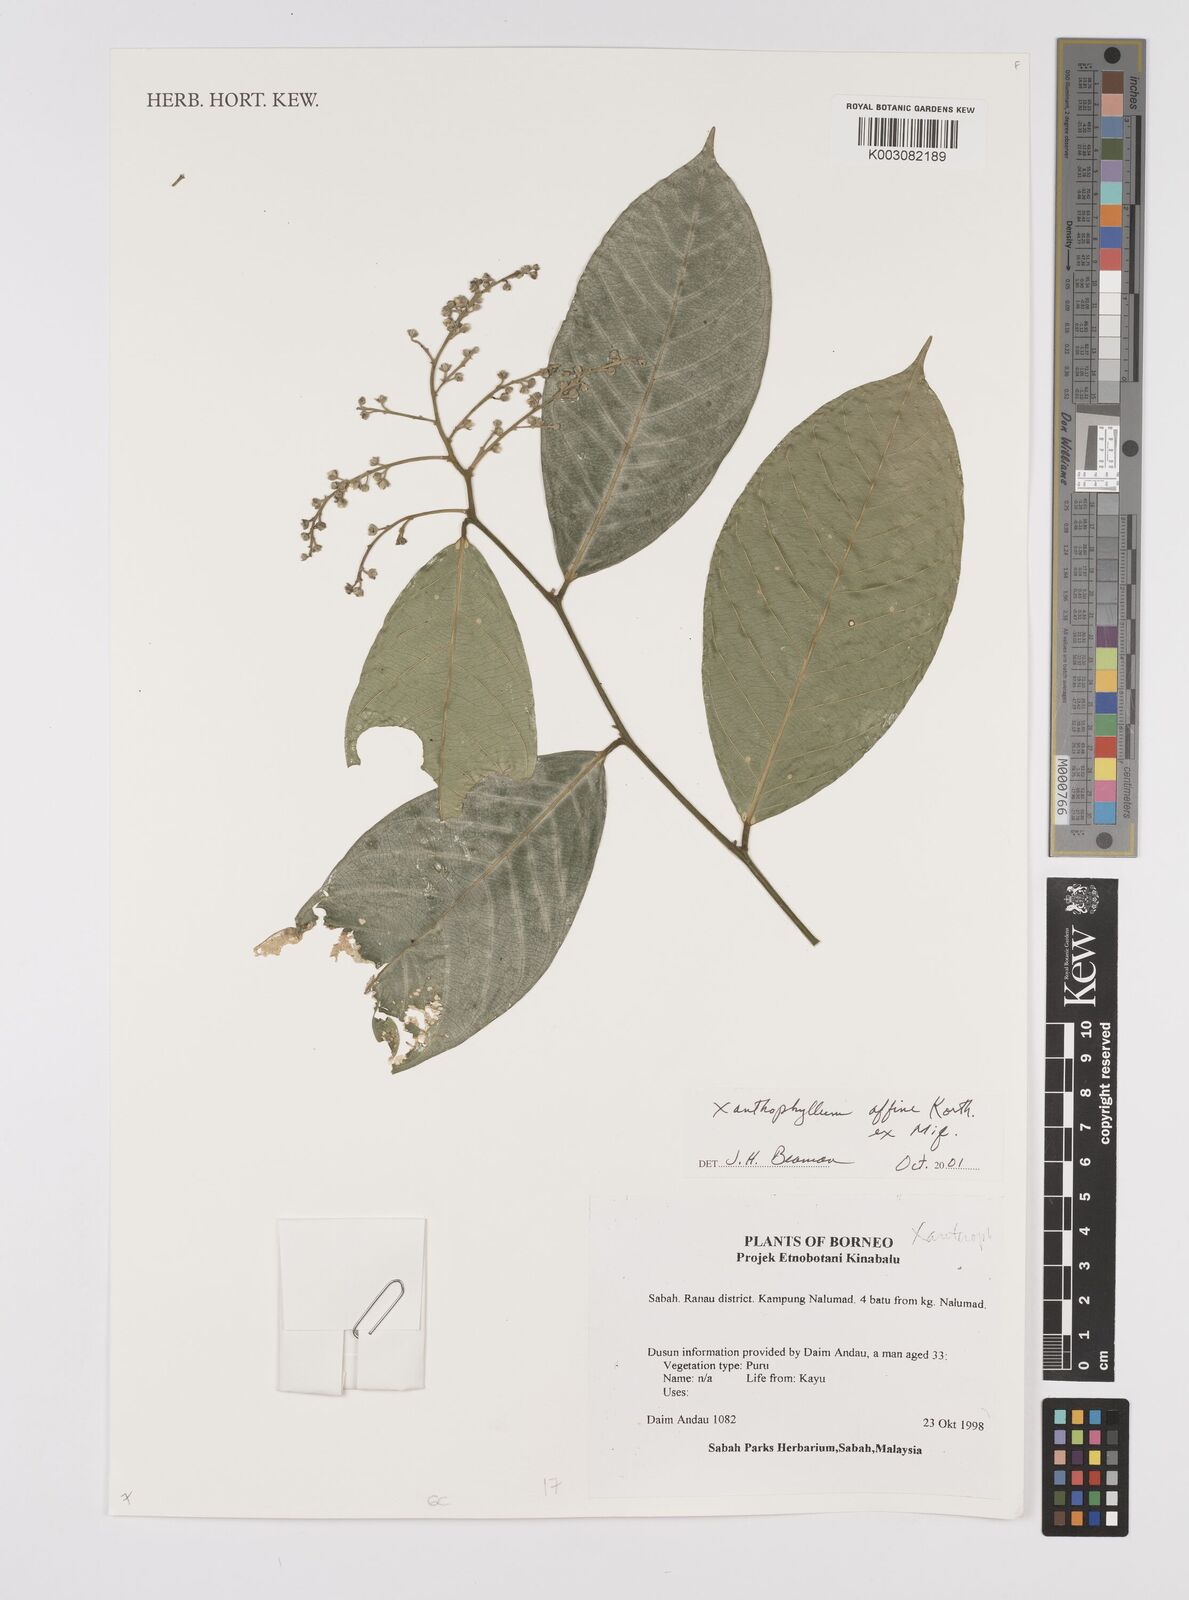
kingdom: Plantae
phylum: Tracheophyta
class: Magnoliopsida
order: Fabales
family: Polygalaceae
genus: Xanthophyllum
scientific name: Xanthophyllum flavescens
